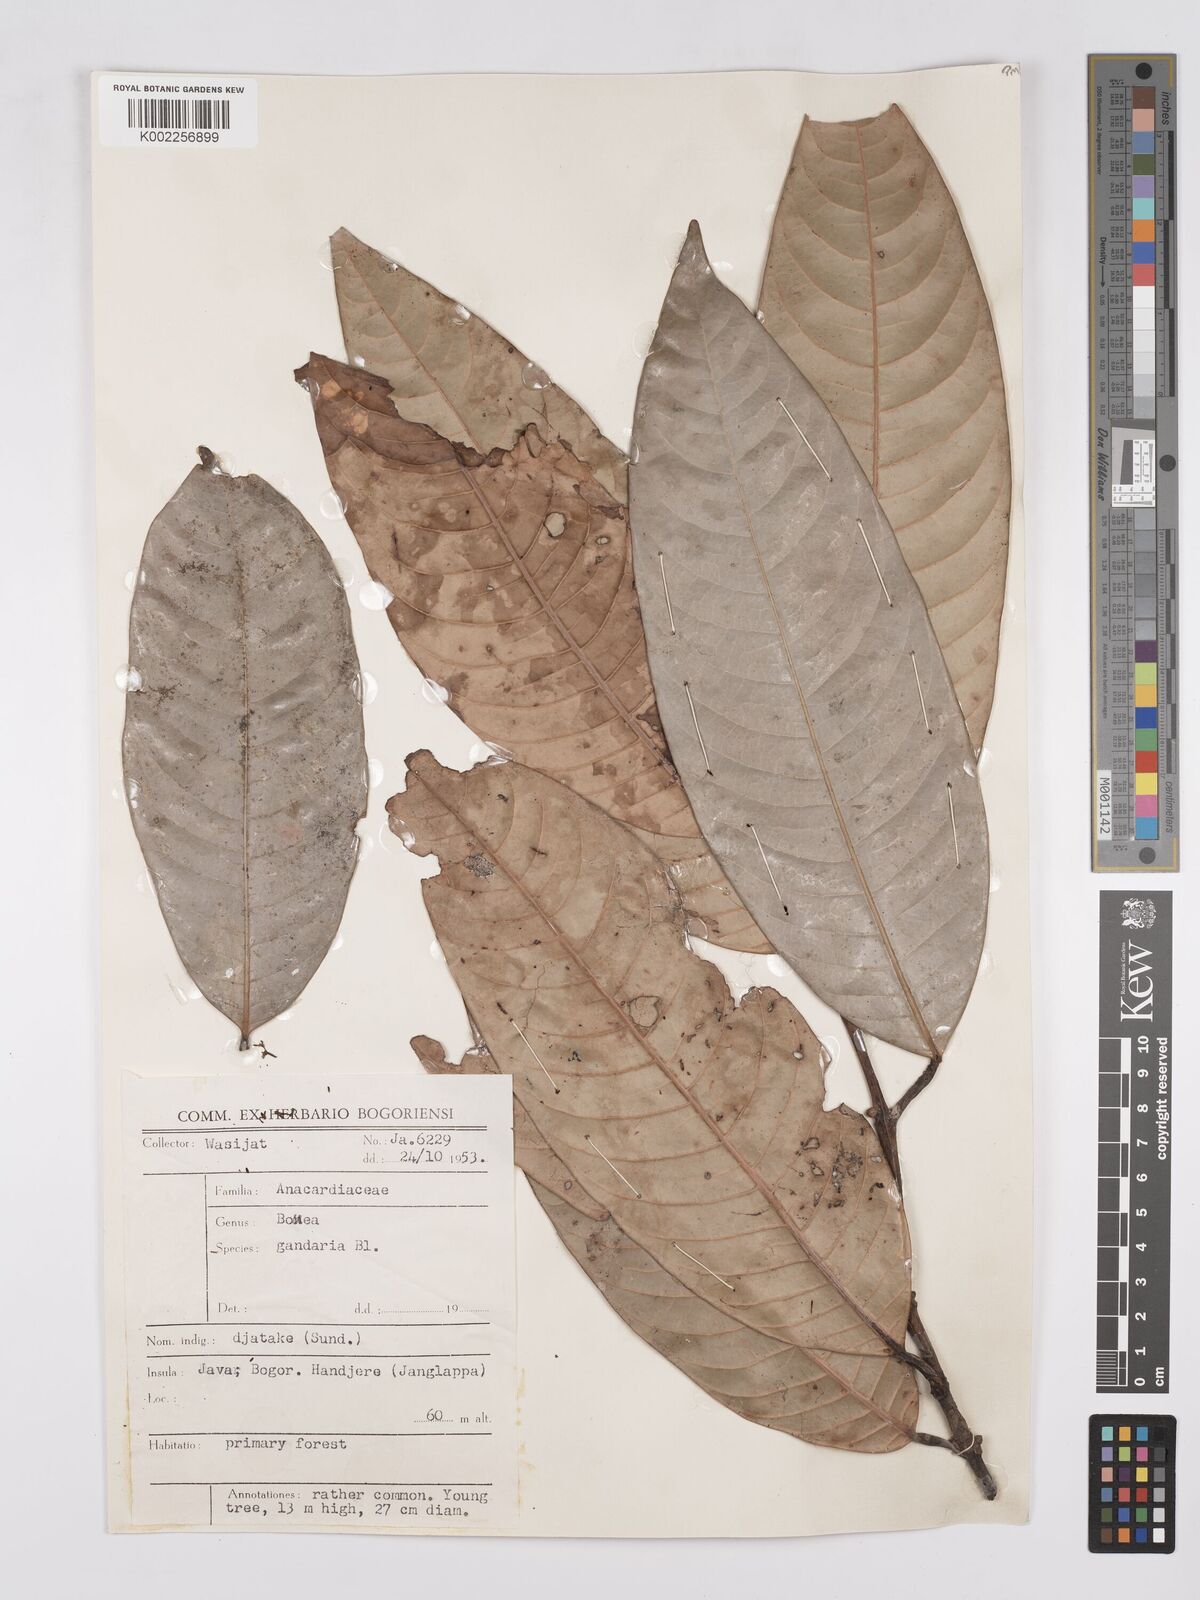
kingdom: Plantae
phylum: Tracheophyta
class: Magnoliopsida
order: Sapindales
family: Anacardiaceae
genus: Bouea
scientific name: Bouea macrophylla
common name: Gandaria
